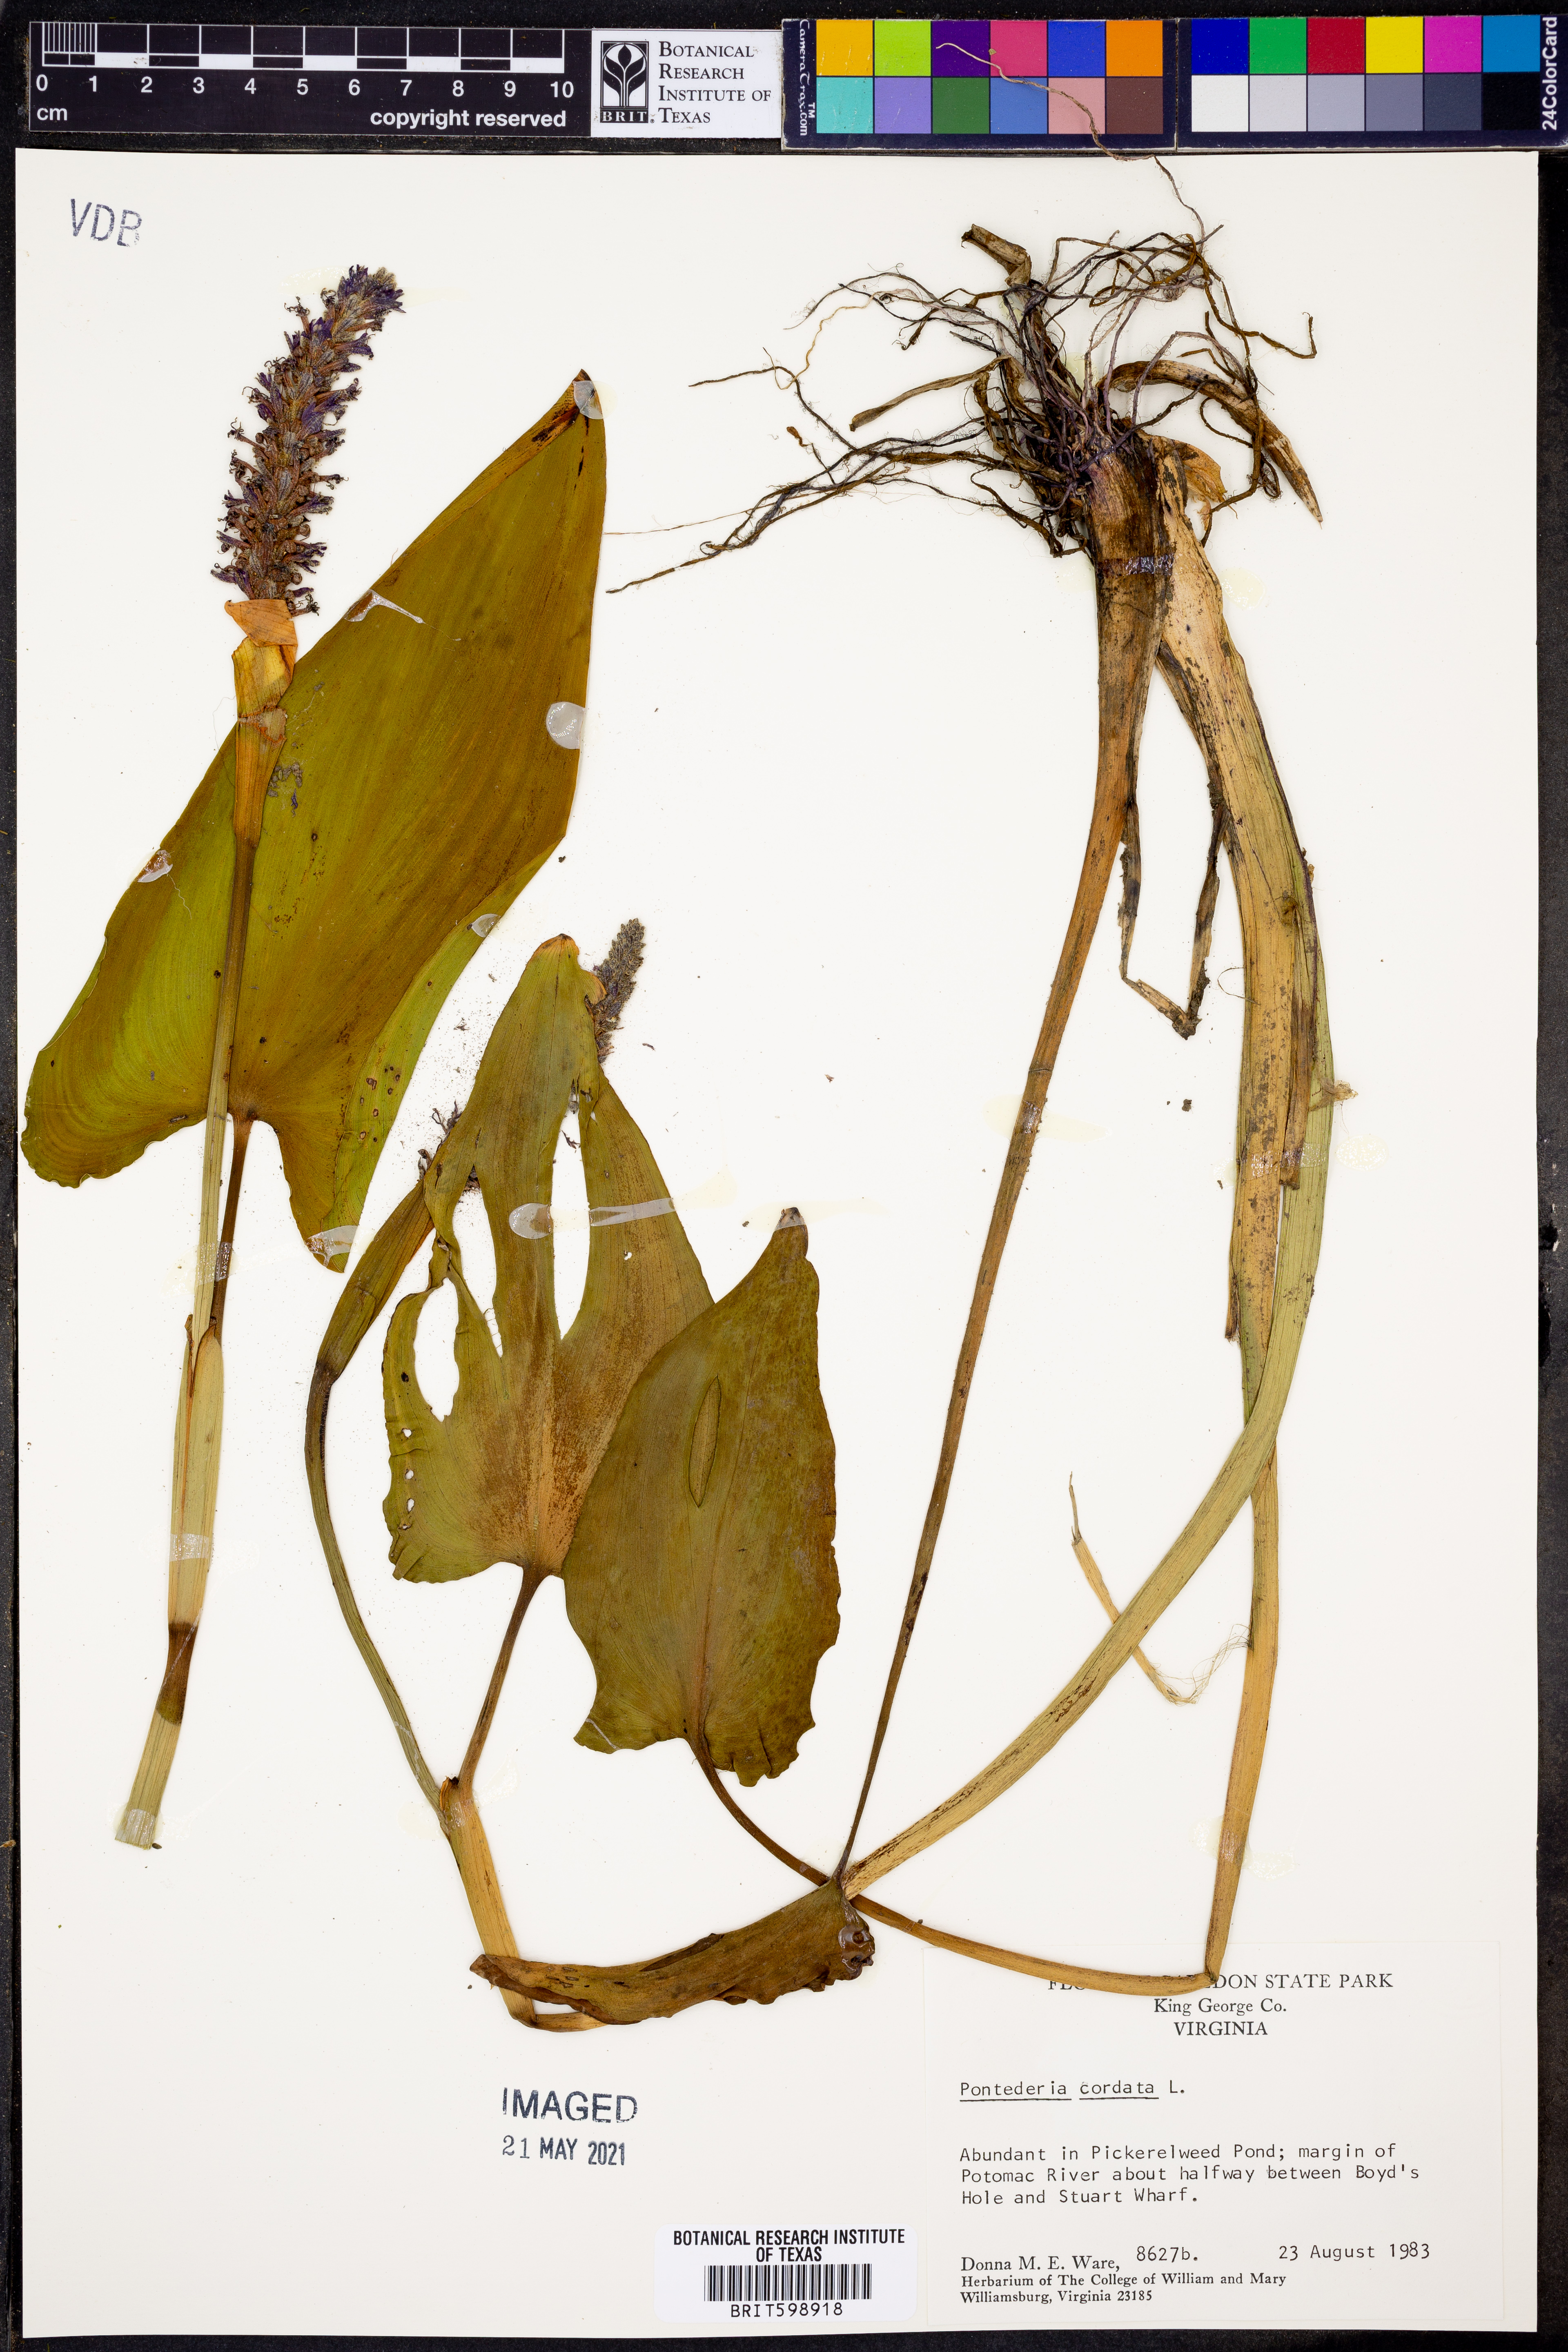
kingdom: Plantae
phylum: Tracheophyta
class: Liliopsida
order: Commelinales
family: Pontederiaceae
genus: Pontederia
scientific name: Pontederia cordata
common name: Pickerelweed
